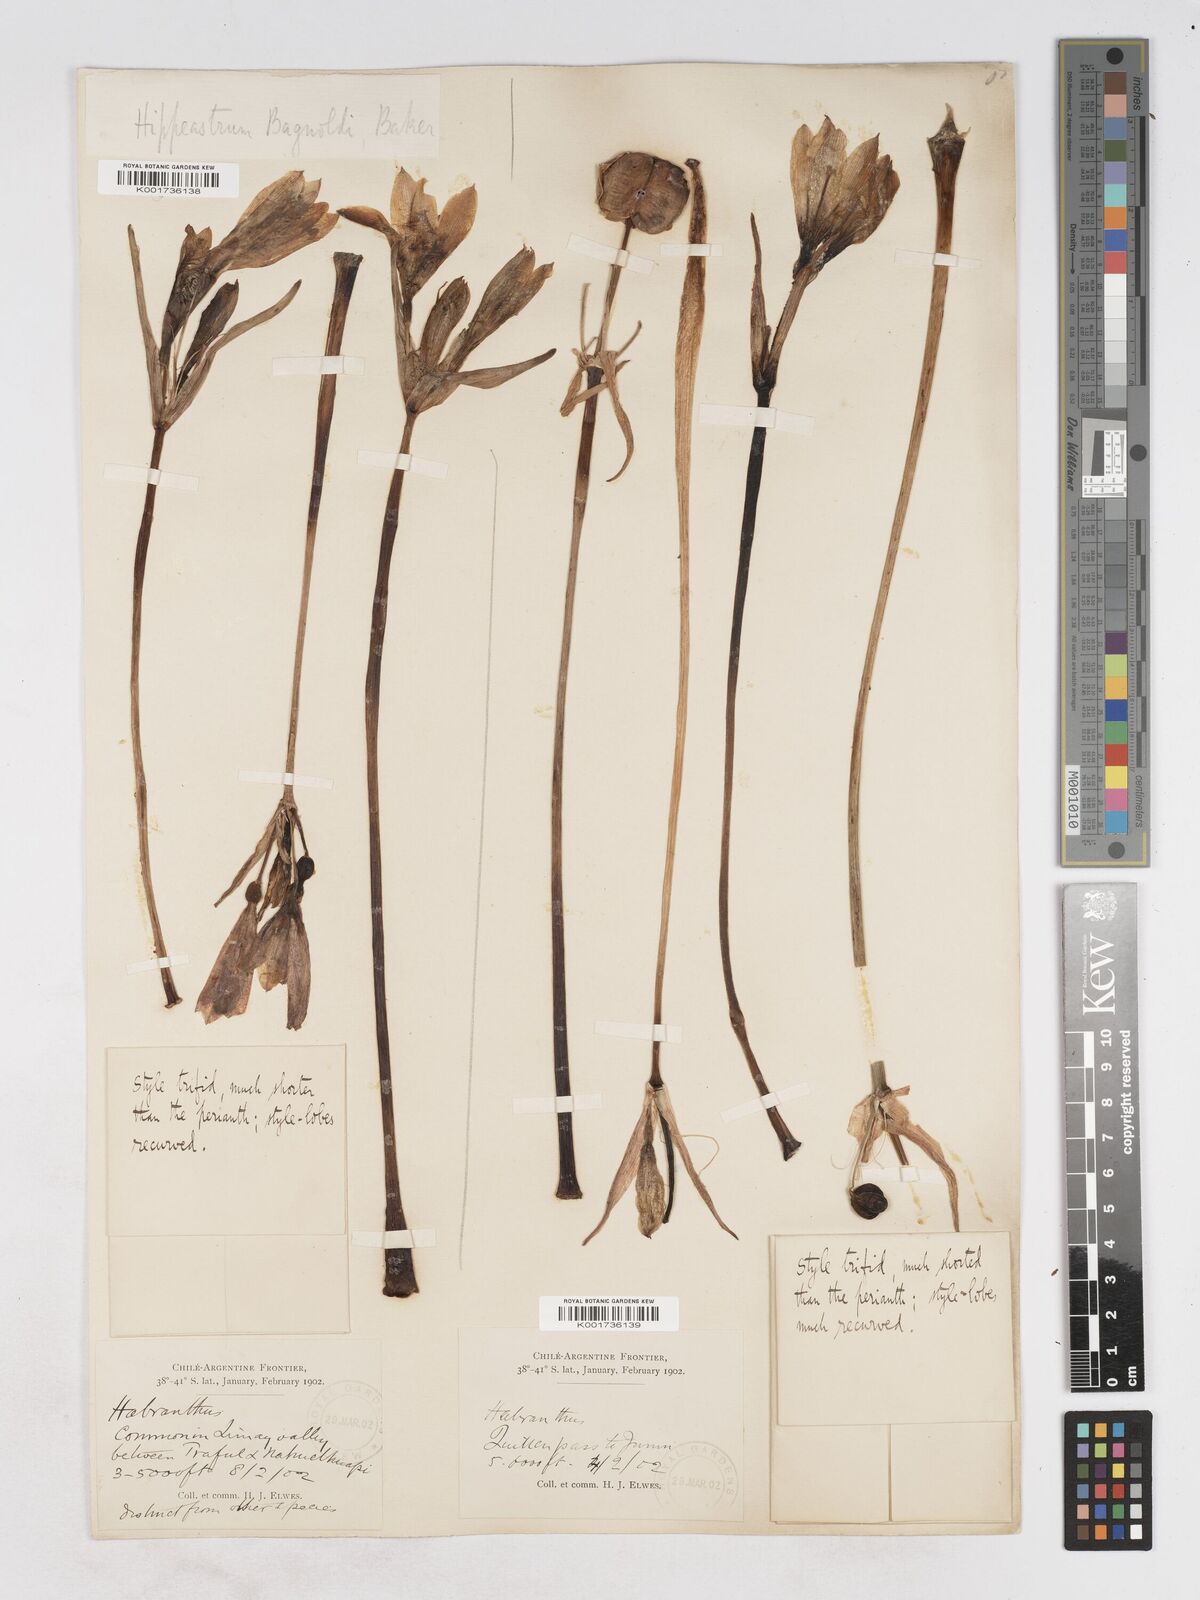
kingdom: Plantae
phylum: Tracheophyta
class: Liliopsida
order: Asparagales
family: Amaryllidaceae
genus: Zephyranthes
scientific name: Zephyranthes bagnoldii
